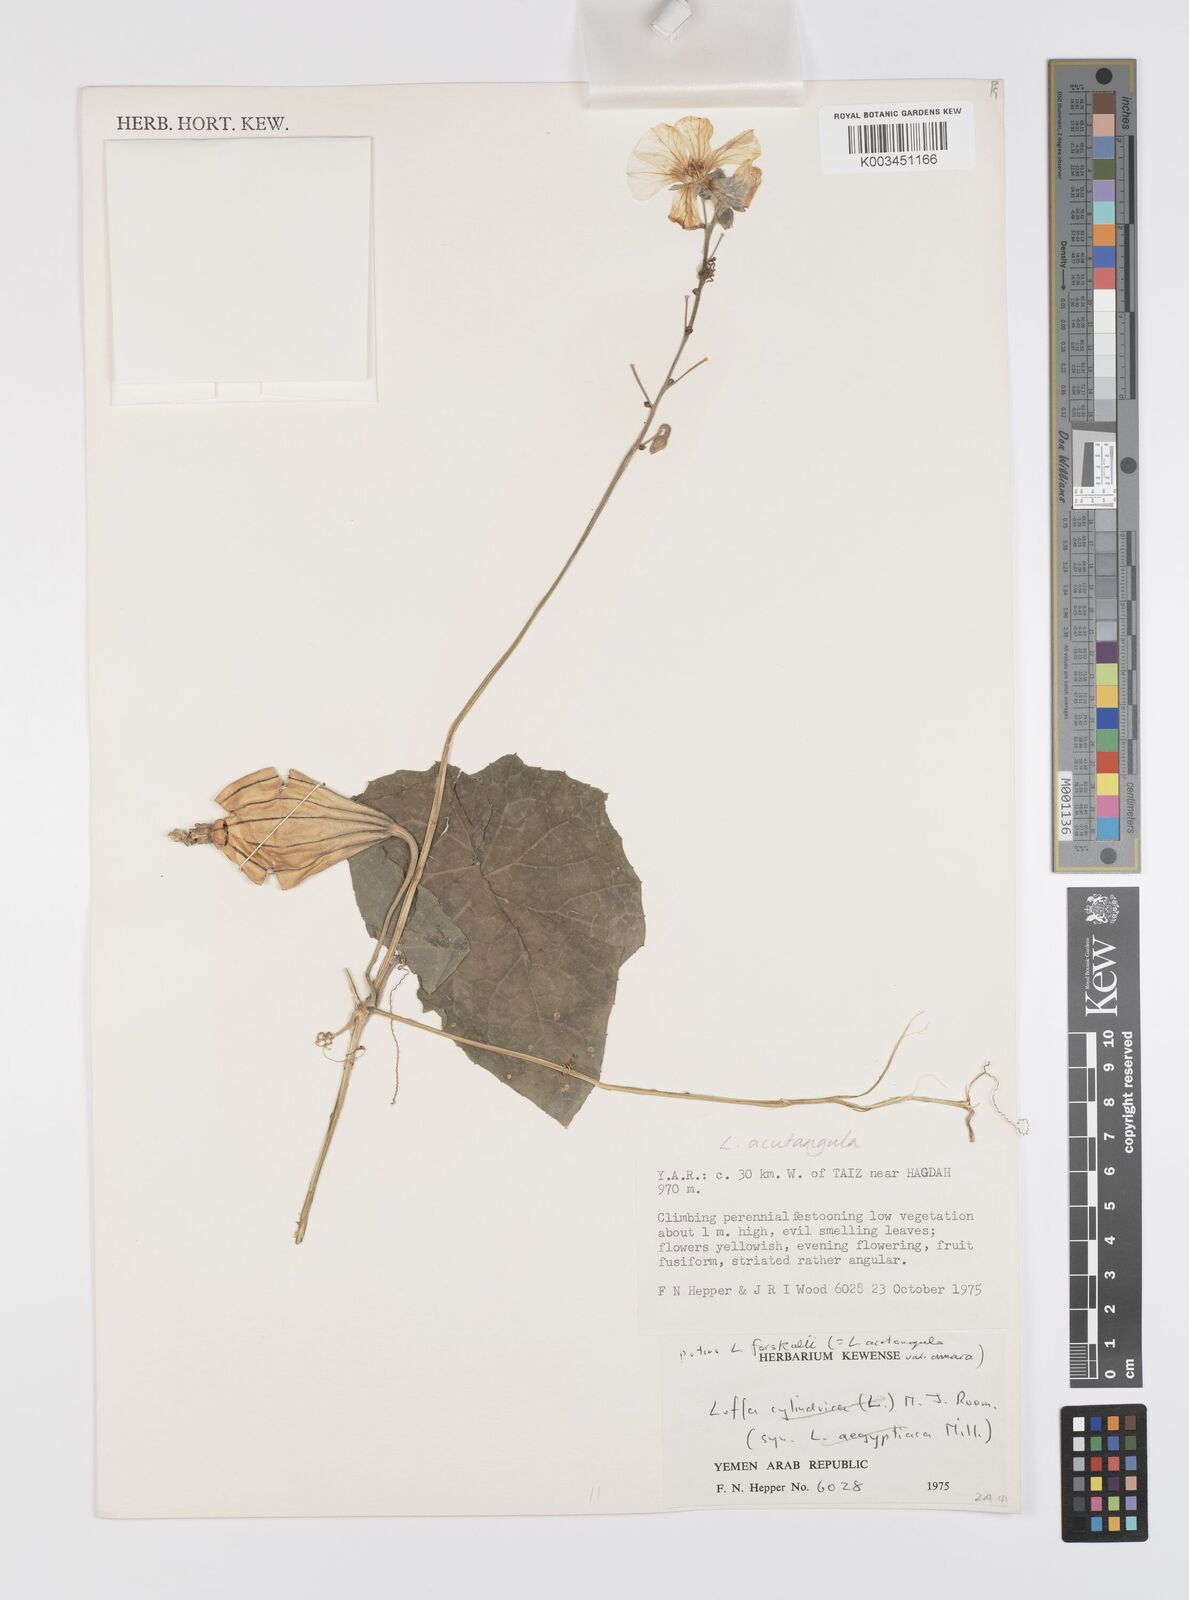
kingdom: Plantae
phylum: Tracheophyta
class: Magnoliopsida
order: Cucurbitales
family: Cucurbitaceae
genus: Luffa
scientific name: Luffa acutangula
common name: Sinkwa towelsponge
